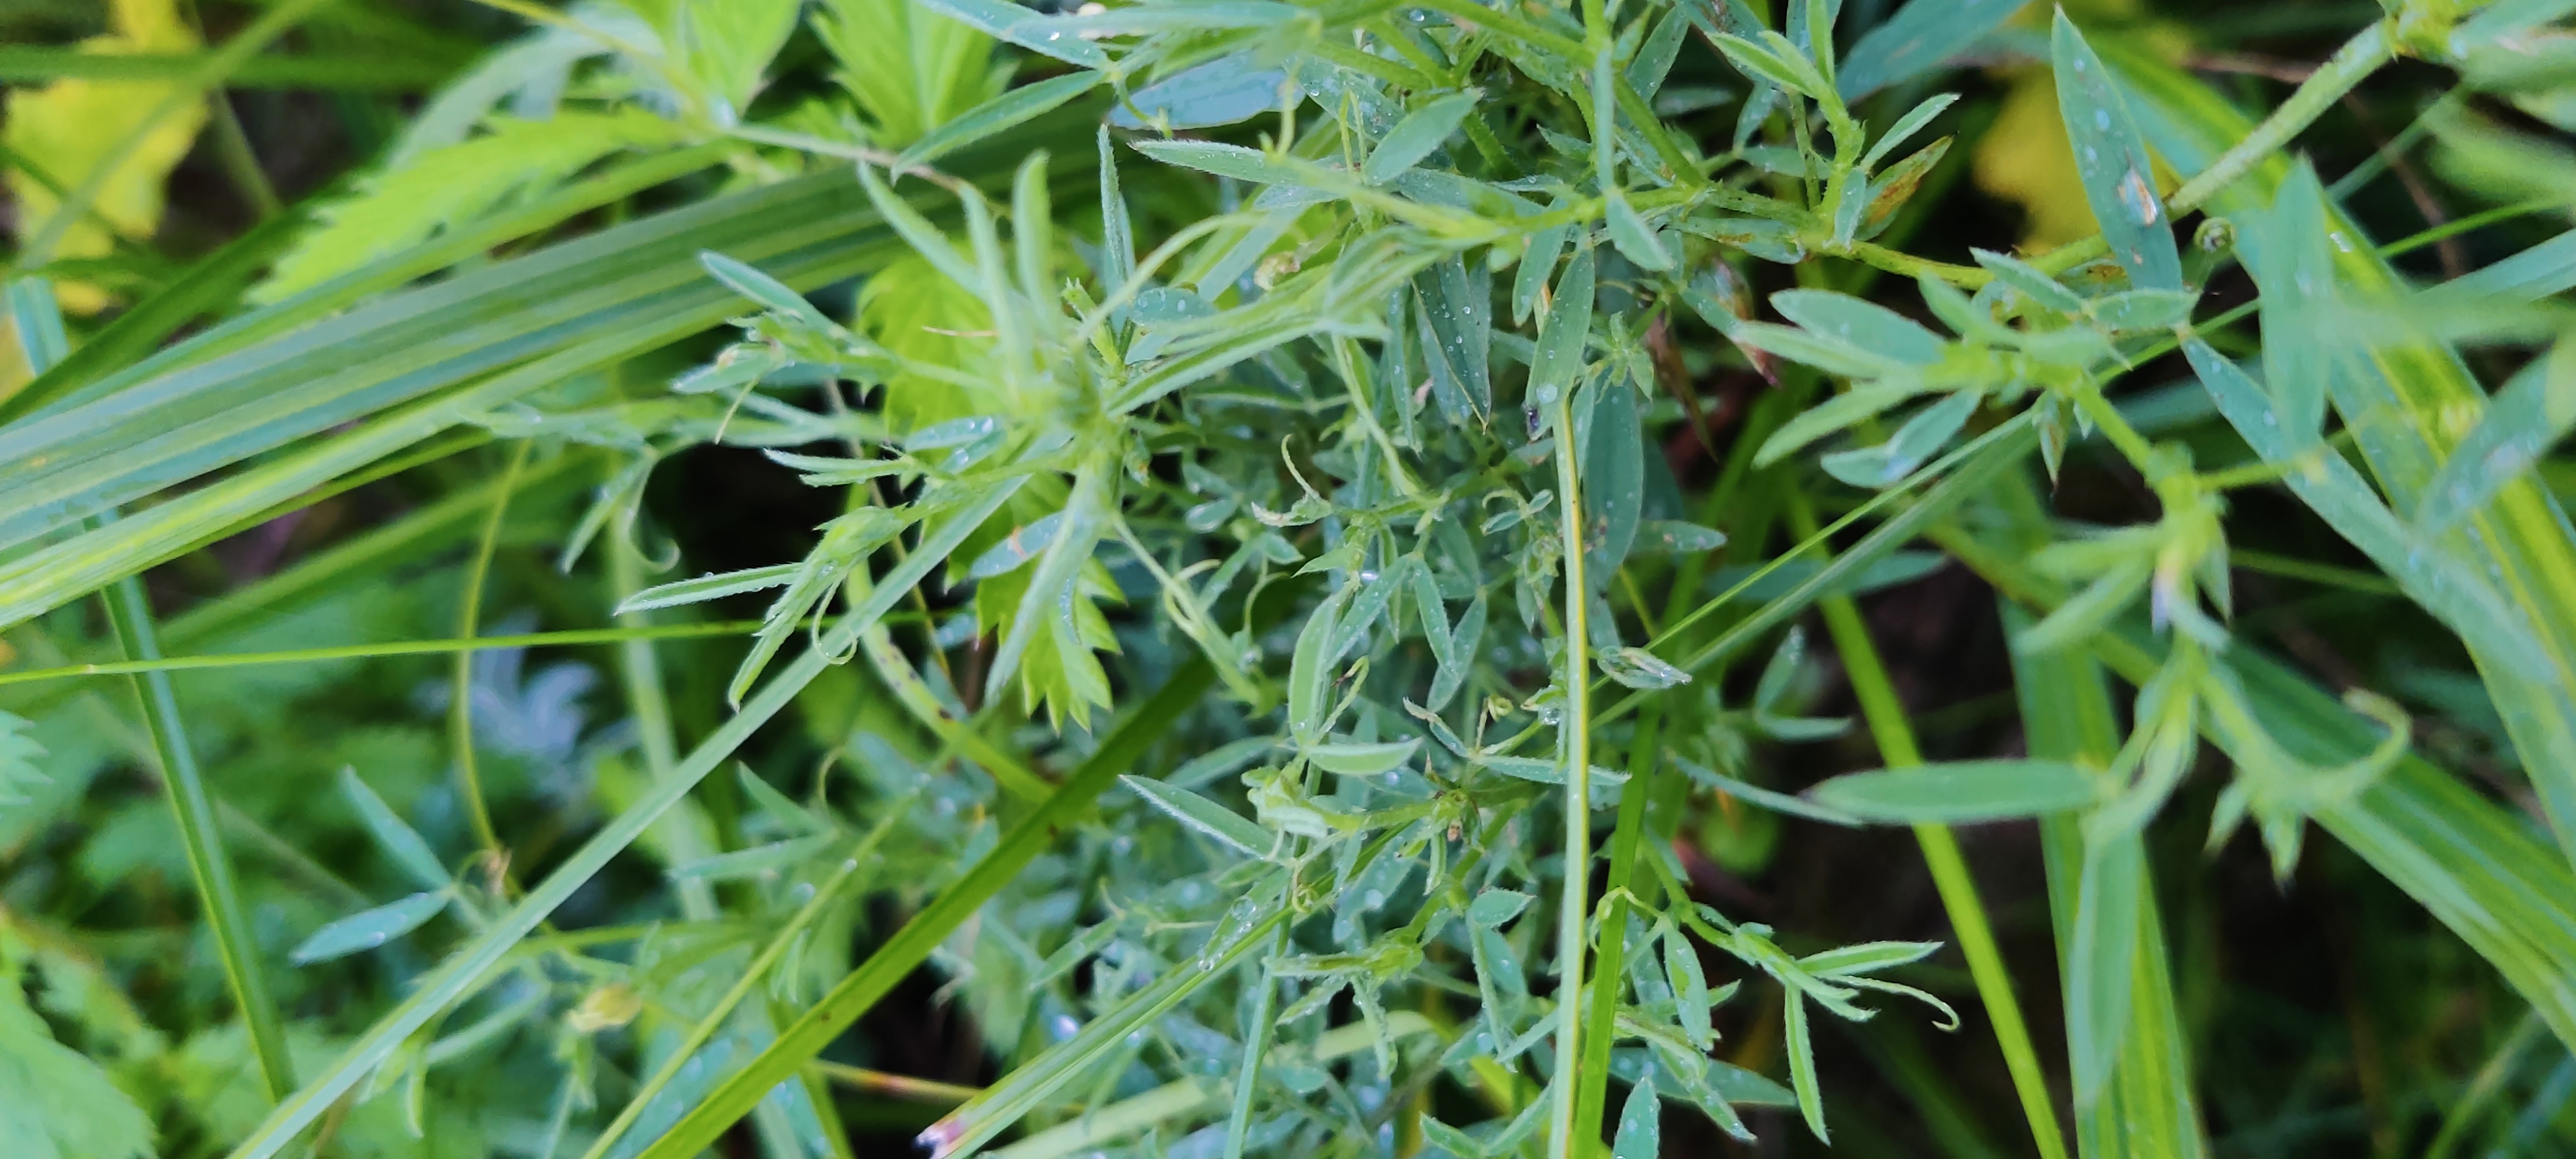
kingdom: Plantae
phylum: Tracheophyta
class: Magnoliopsida
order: Fabales
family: Fabaceae
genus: Lathyrus
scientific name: Lathyrus pratensis
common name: Gul fladbælg
